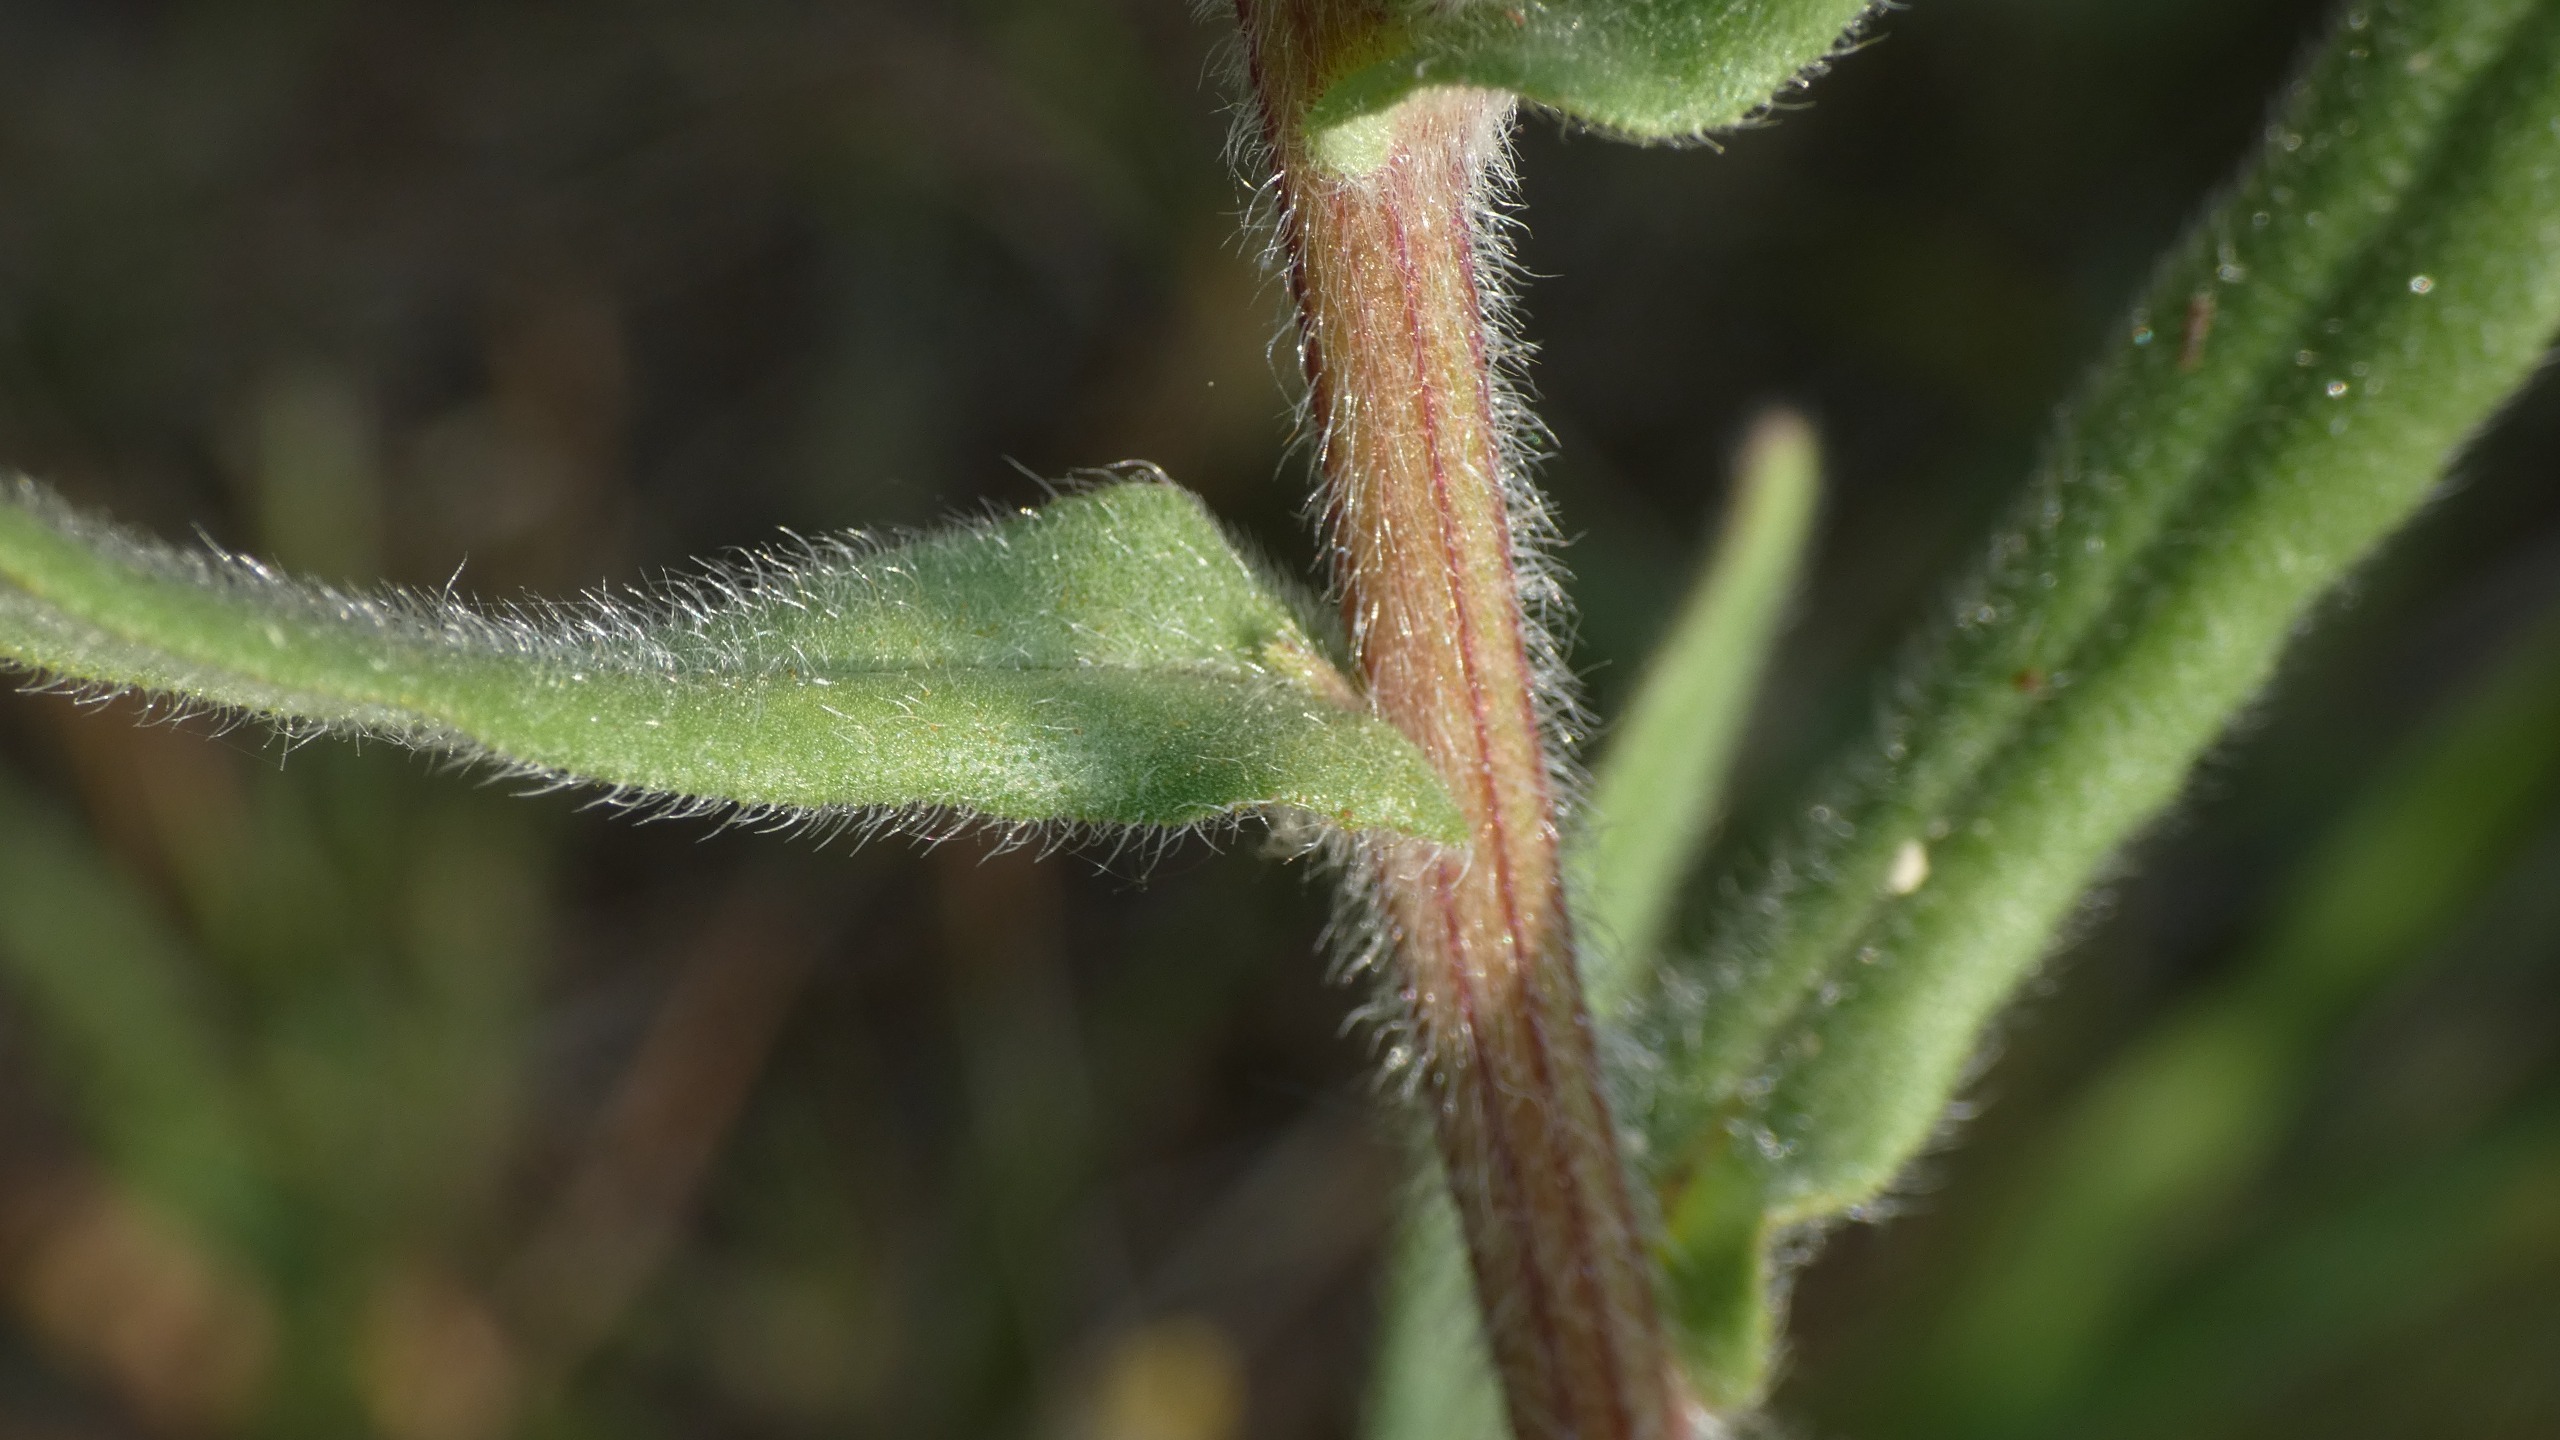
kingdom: Plantae
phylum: Tracheophyta
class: Magnoliopsida
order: Boraginales
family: Boraginaceae
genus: Anchusa
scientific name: Anchusa officinalis
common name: Læge-oksetunge
